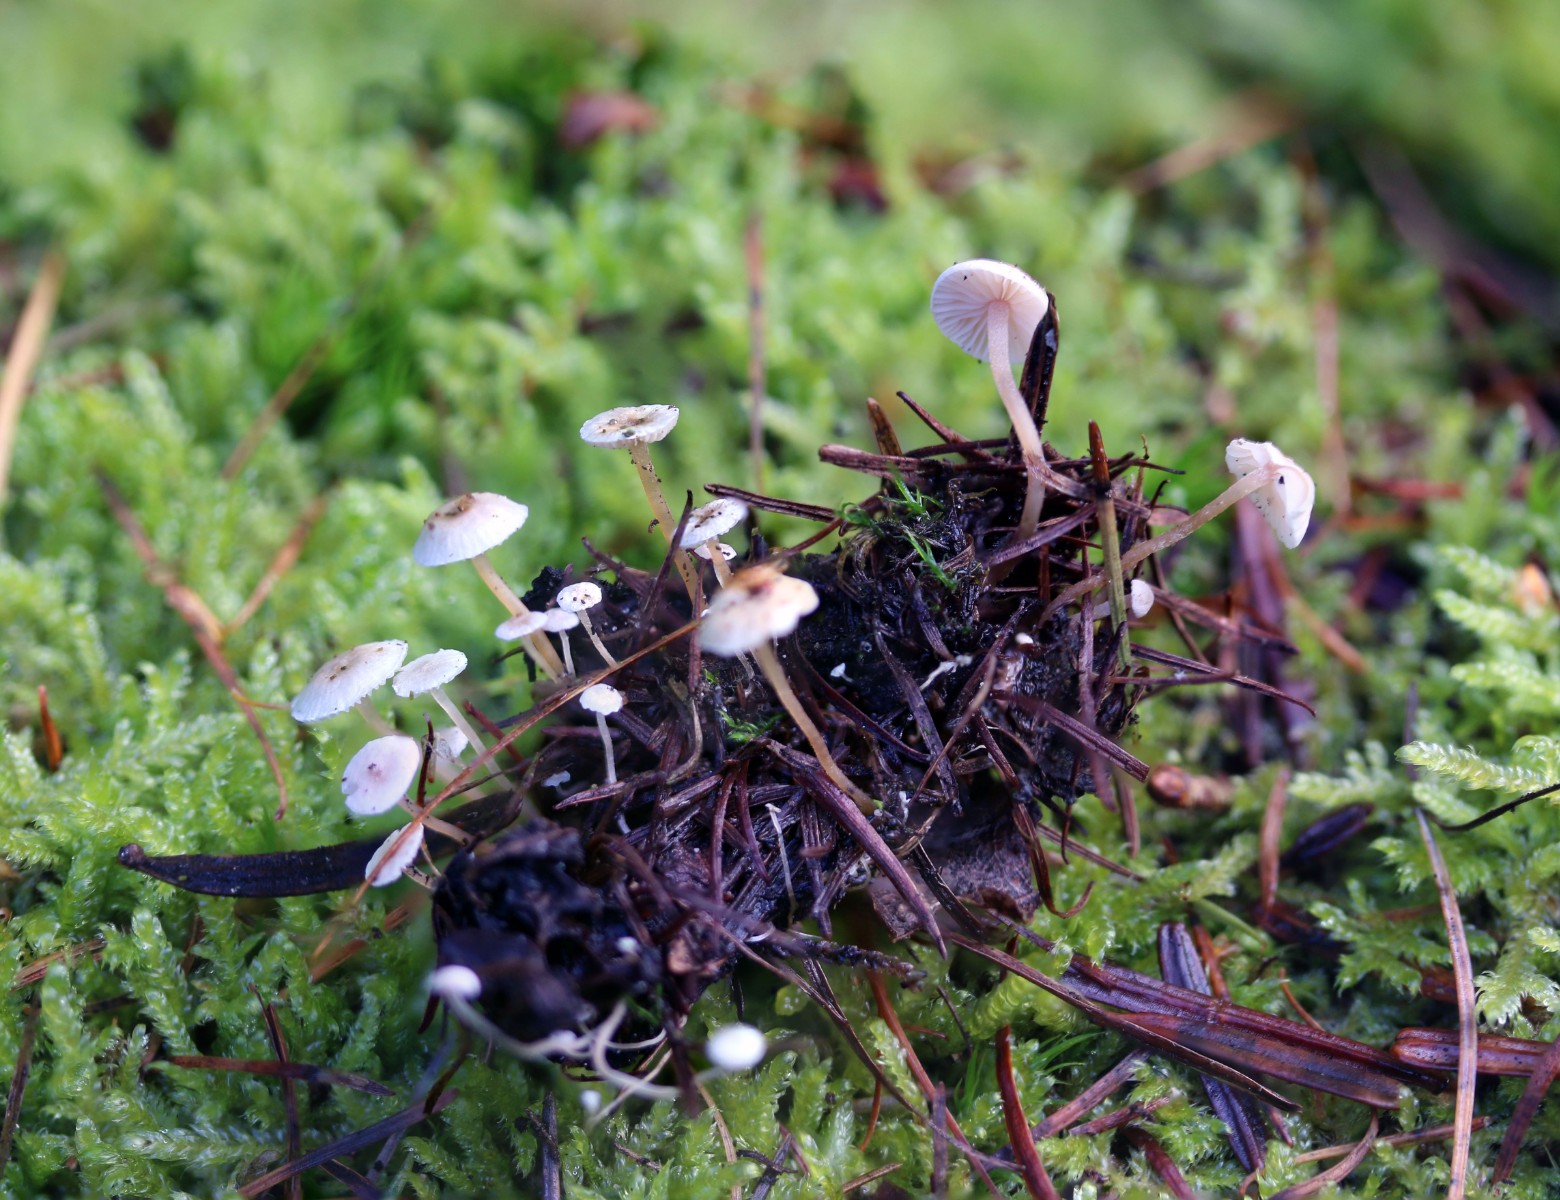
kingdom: Fungi
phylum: Basidiomycota
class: Agaricomycetes
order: Agaricales
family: Tricholomataceae
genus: Collybia
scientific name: Collybia cirrhata
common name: silke-lighat
